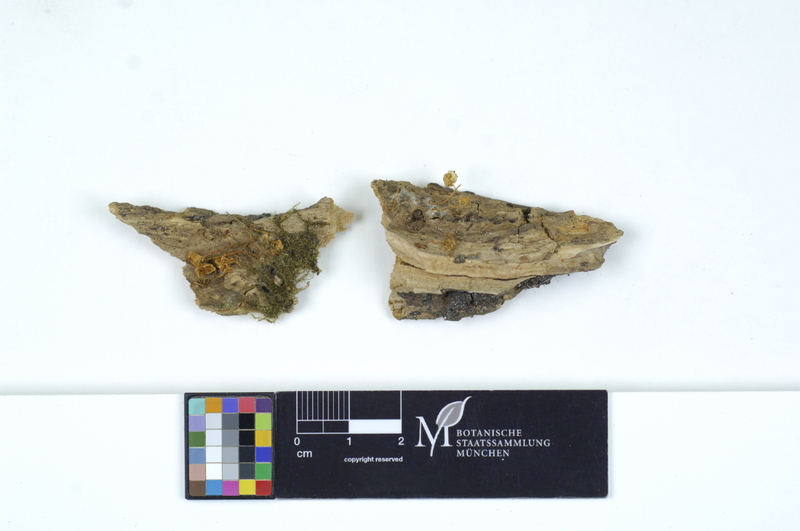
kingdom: Fungi
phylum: Basidiomycota
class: Agaricomycetes
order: Agaricales
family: Tricholomataceae
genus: Delicatula
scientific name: Delicatula integrella
